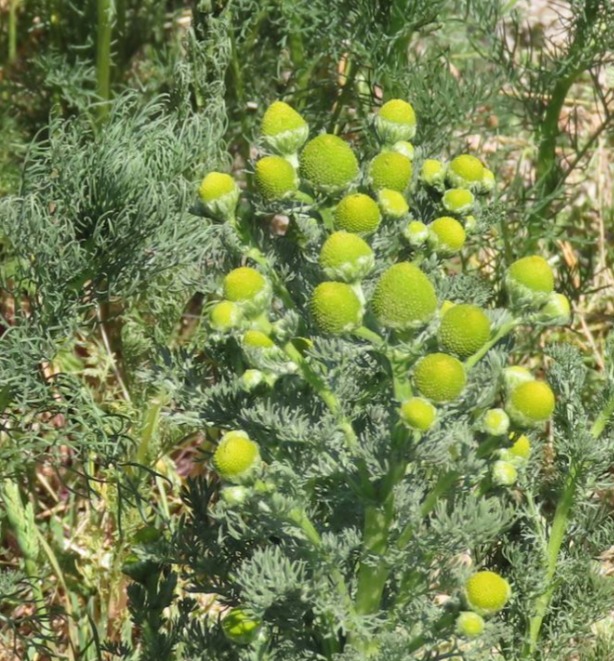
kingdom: Plantae
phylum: Tracheophyta
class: Magnoliopsida
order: Asterales
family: Asteraceae
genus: Matricaria
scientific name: Matricaria discoidea
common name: Skive-kamille
